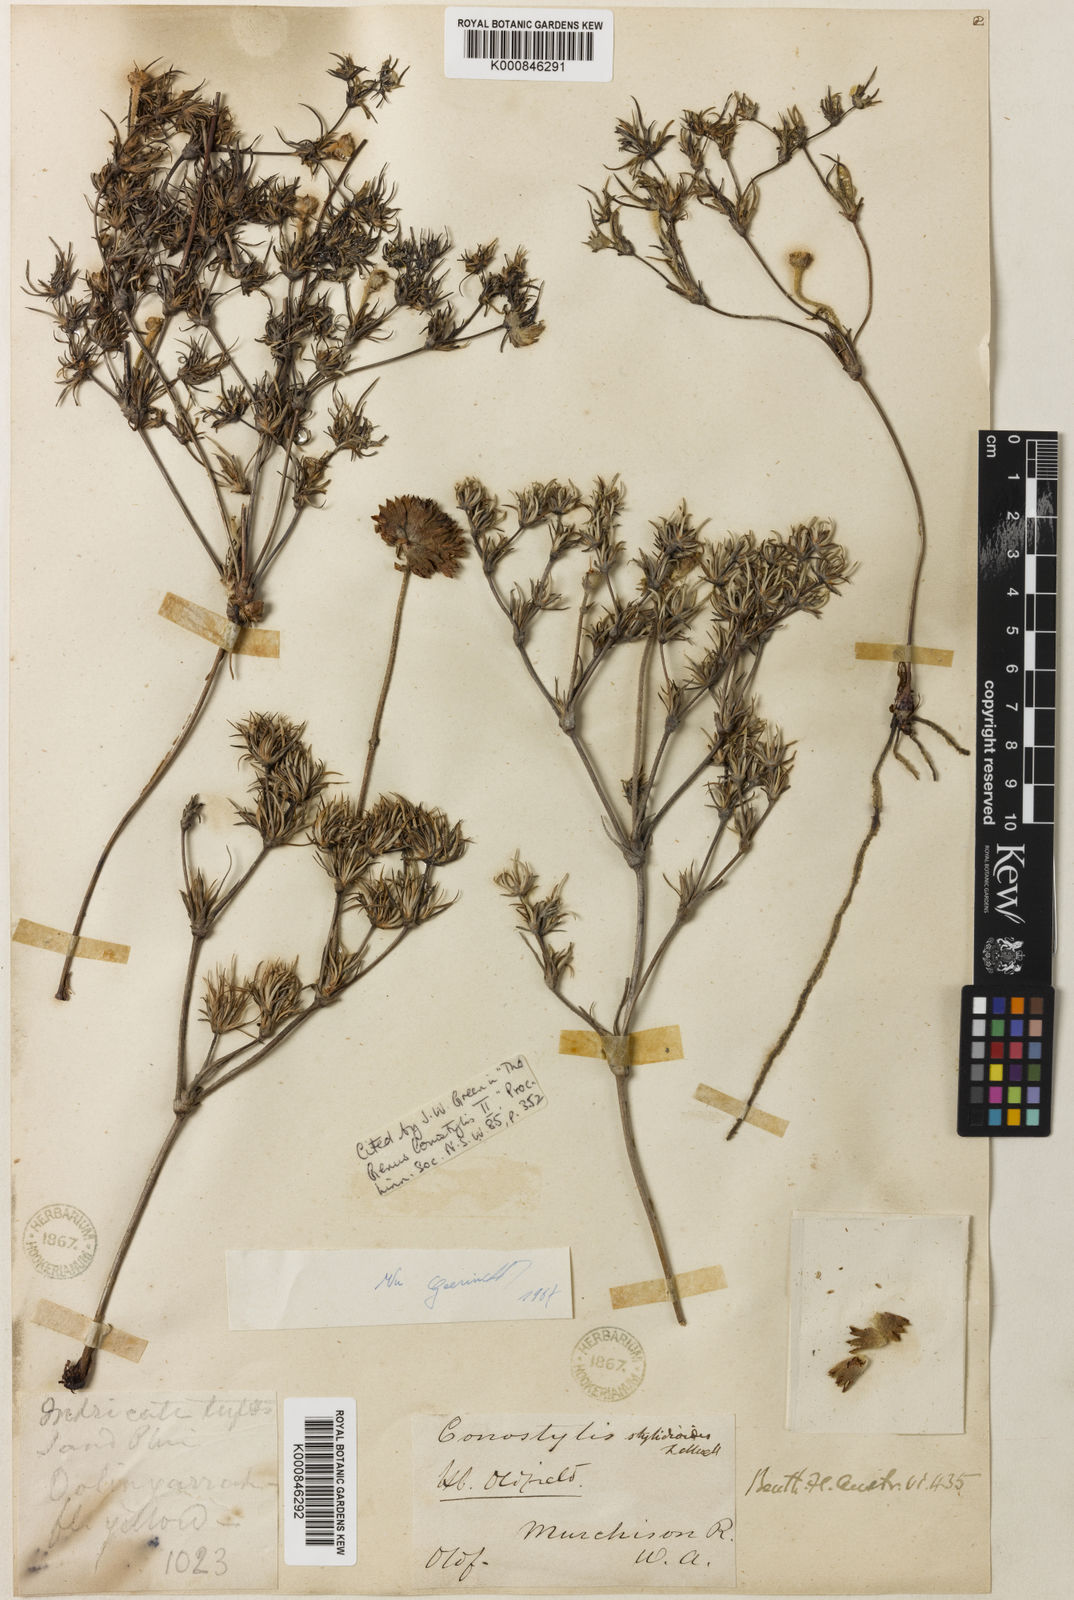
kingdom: Plantae
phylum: Tracheophyta
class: Liliopsida
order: Commelinales
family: Haemodoraceae
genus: Conostylis
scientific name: Conostylis stylidioides
